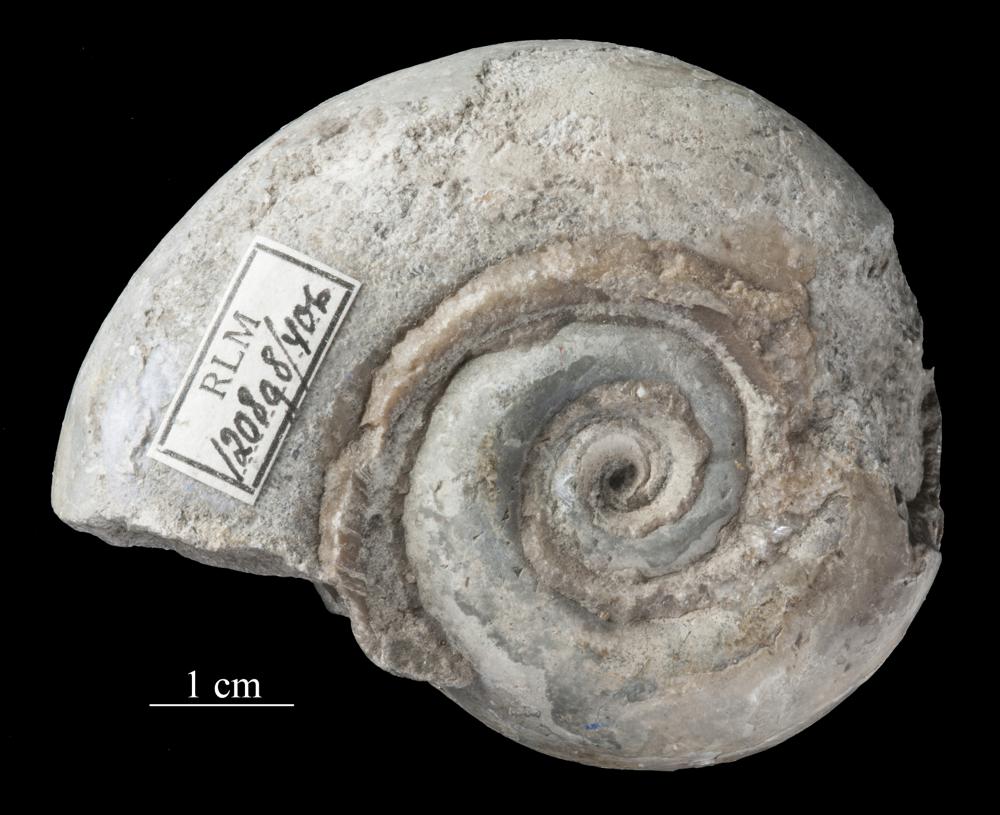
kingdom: Animalia
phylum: Mollusca
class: Gastropoda
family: Lesueurillidae
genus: Lesueurilla
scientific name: Lesueurilla Maclurea infundibulum
